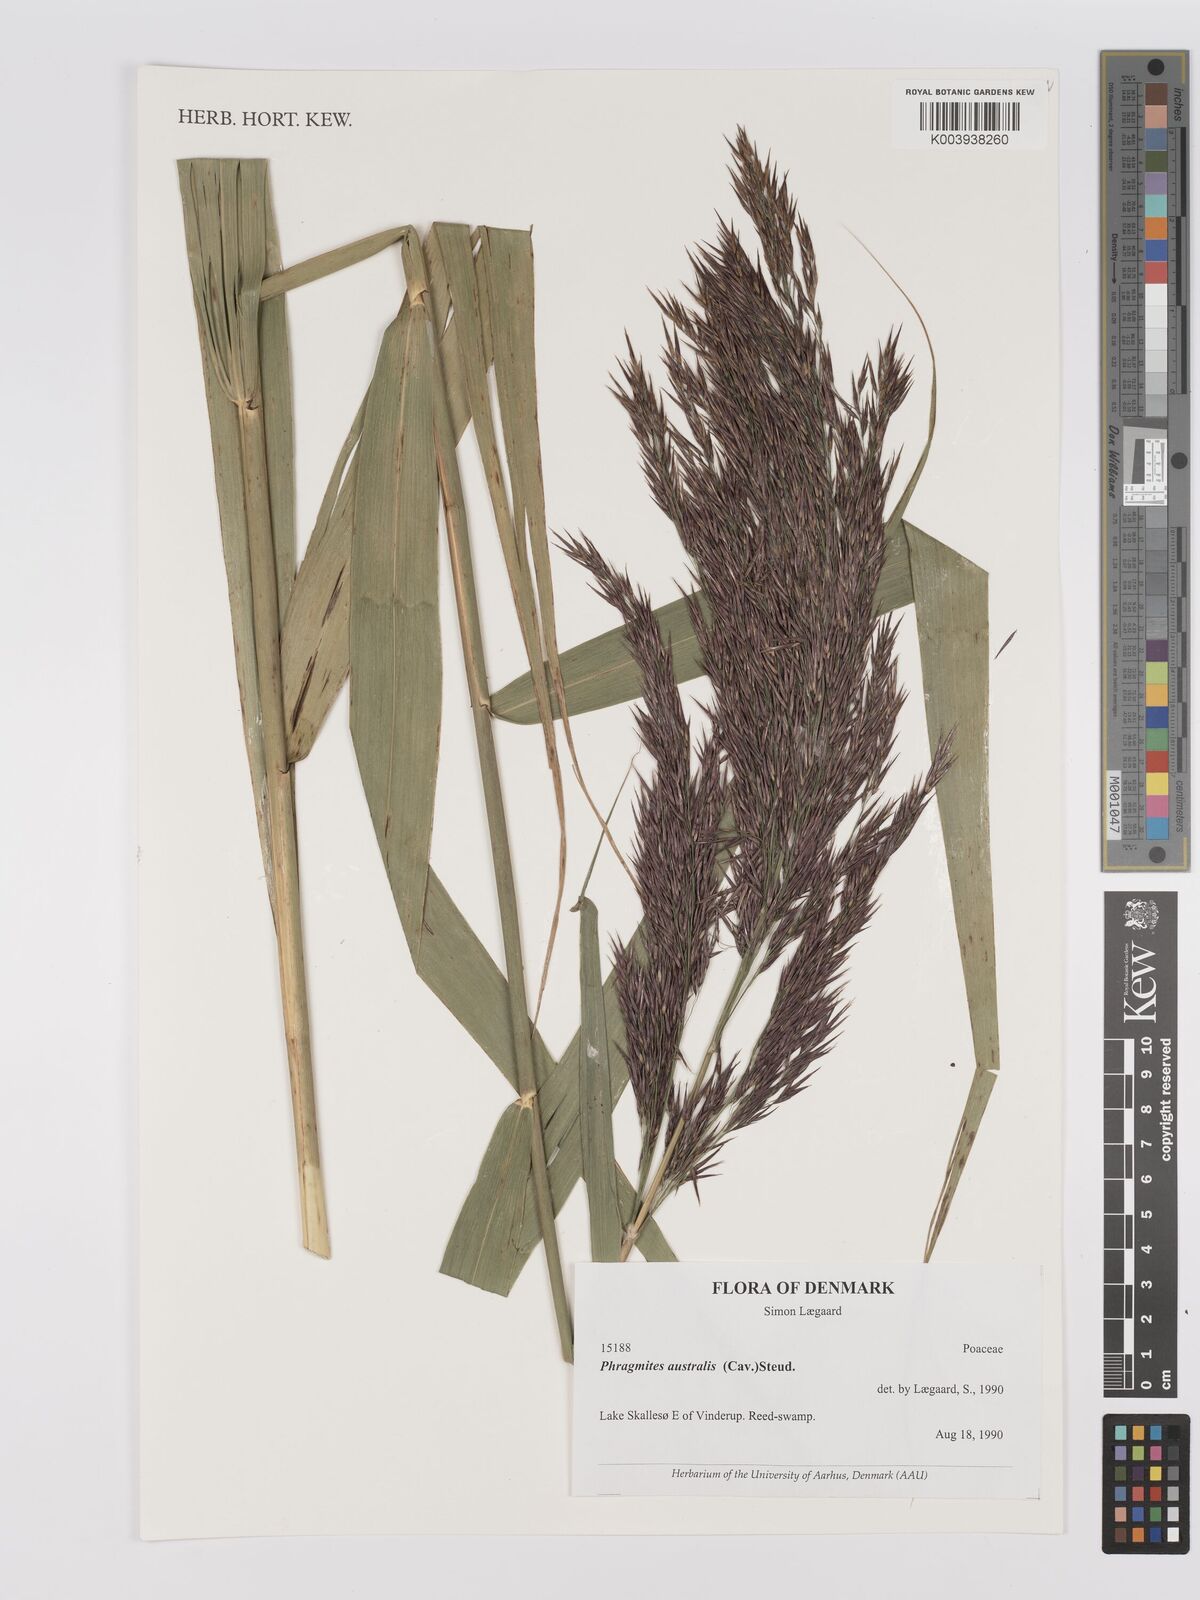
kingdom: Plantae
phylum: Tracheophyta
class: Liliopsida
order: Poales
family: Poaceae
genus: Phragmites
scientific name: Phragmites australis
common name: Common reed
